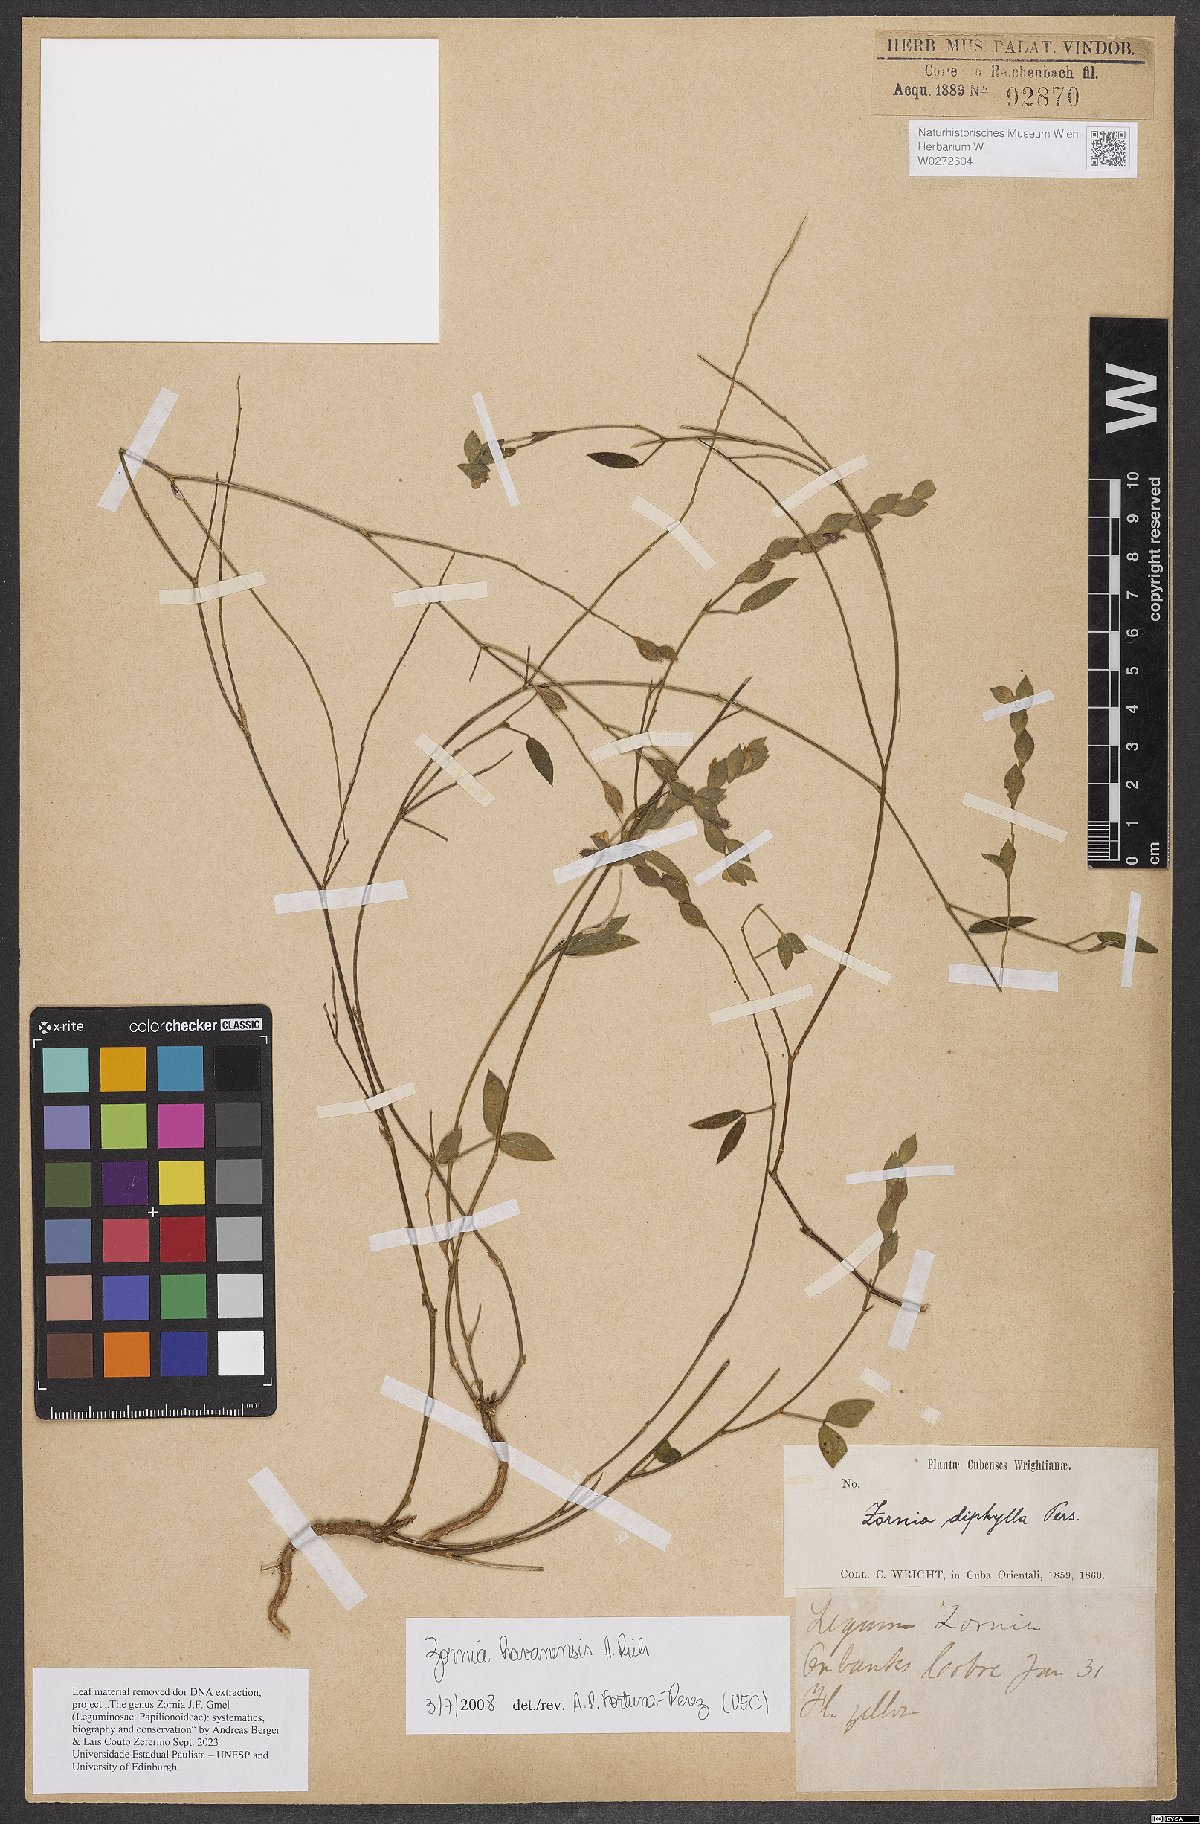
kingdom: Plantae
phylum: Tracheophyta
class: Magnoliopsida
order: Fabales
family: Fabaceae
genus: Zornia
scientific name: Zornia reticulata
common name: Reticulate viperina
